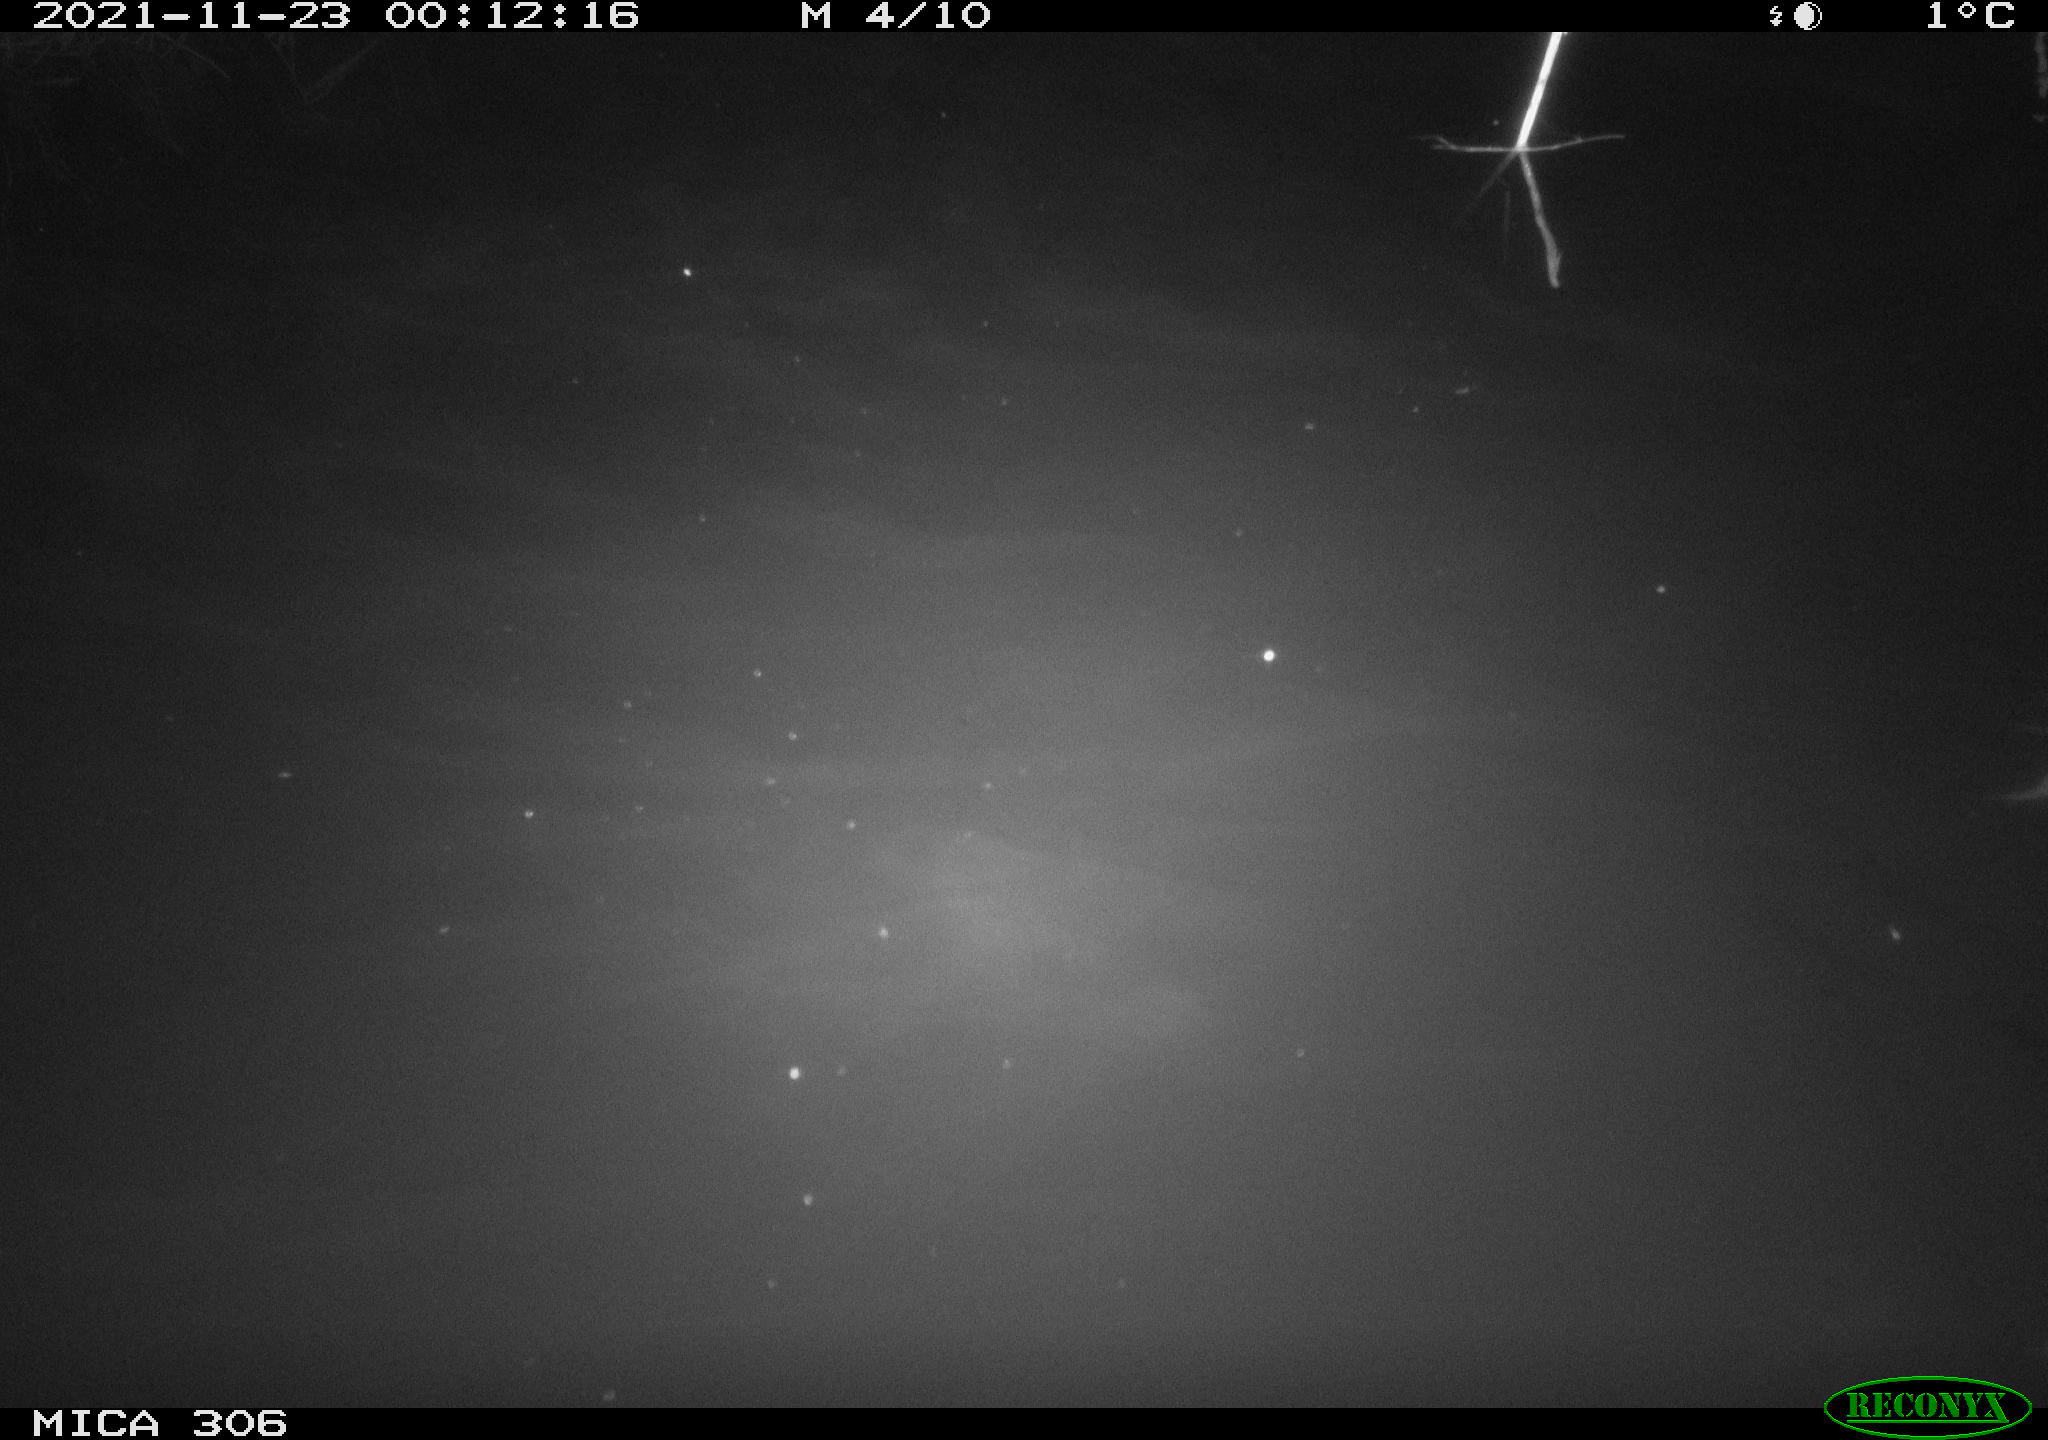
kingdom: Animalia
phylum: Chordata
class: Mammalia
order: Rodentia
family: Muridae
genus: Rattus
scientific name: Rattus norvegicus
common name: Brown rat
